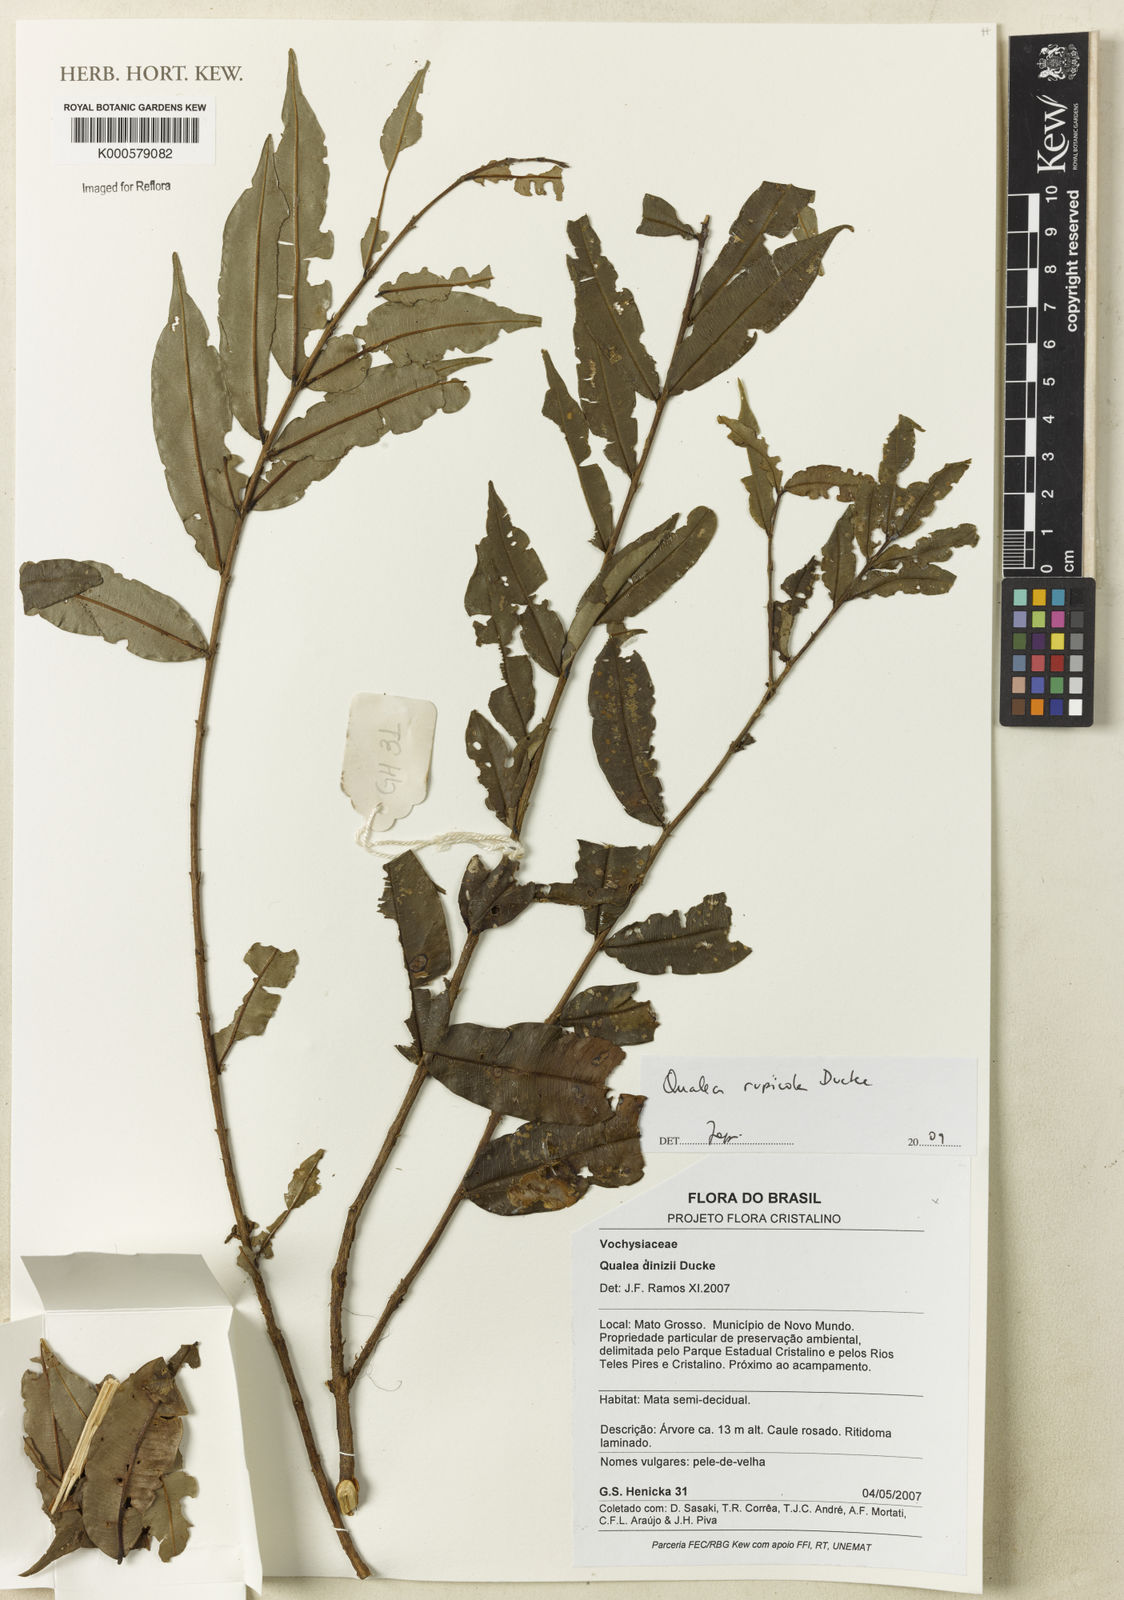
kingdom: Plantae
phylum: Tracheophyta
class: Magnoliopsida
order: Myrtales
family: Vochysiaceae
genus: Qualea
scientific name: Qualea rupicola
